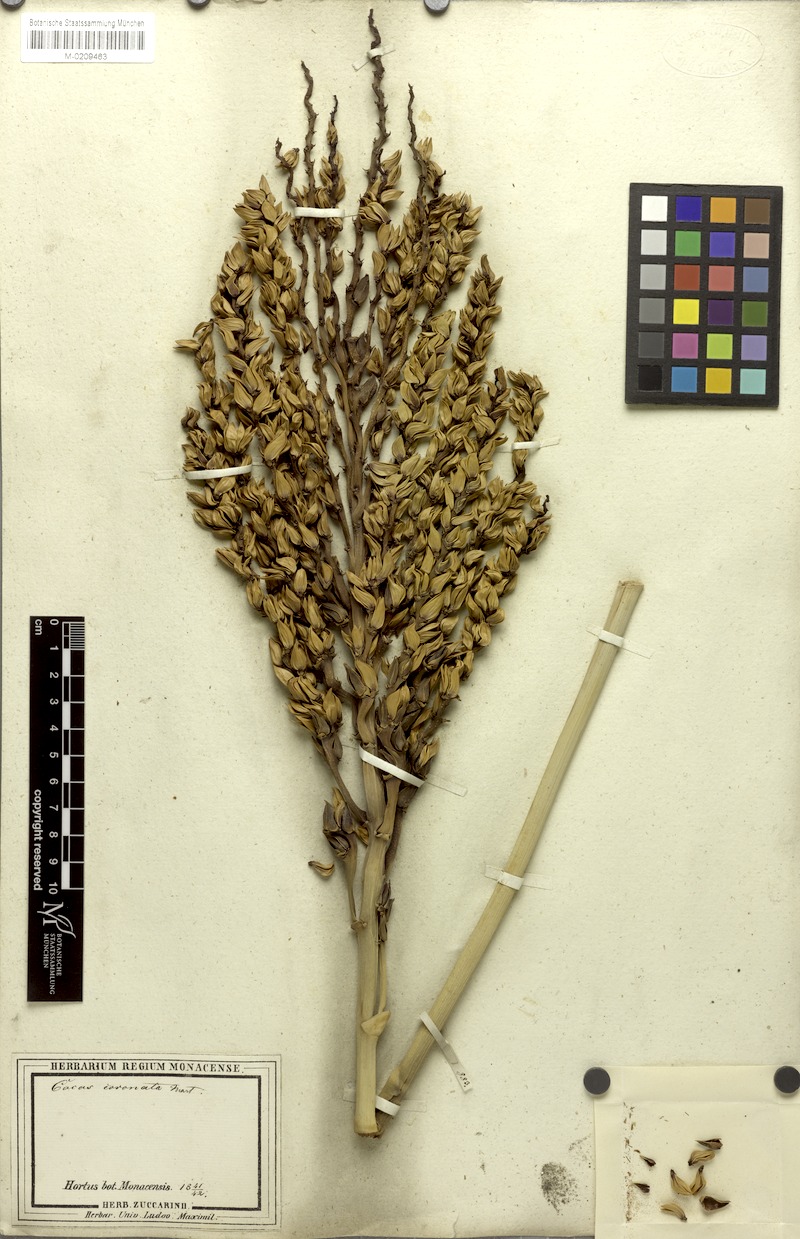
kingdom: Plantae
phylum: Tracheophyta
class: Liliopsida
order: Arecales
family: Arecaceae
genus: Syagrus
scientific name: Syagrus oleracea
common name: Catole palm
